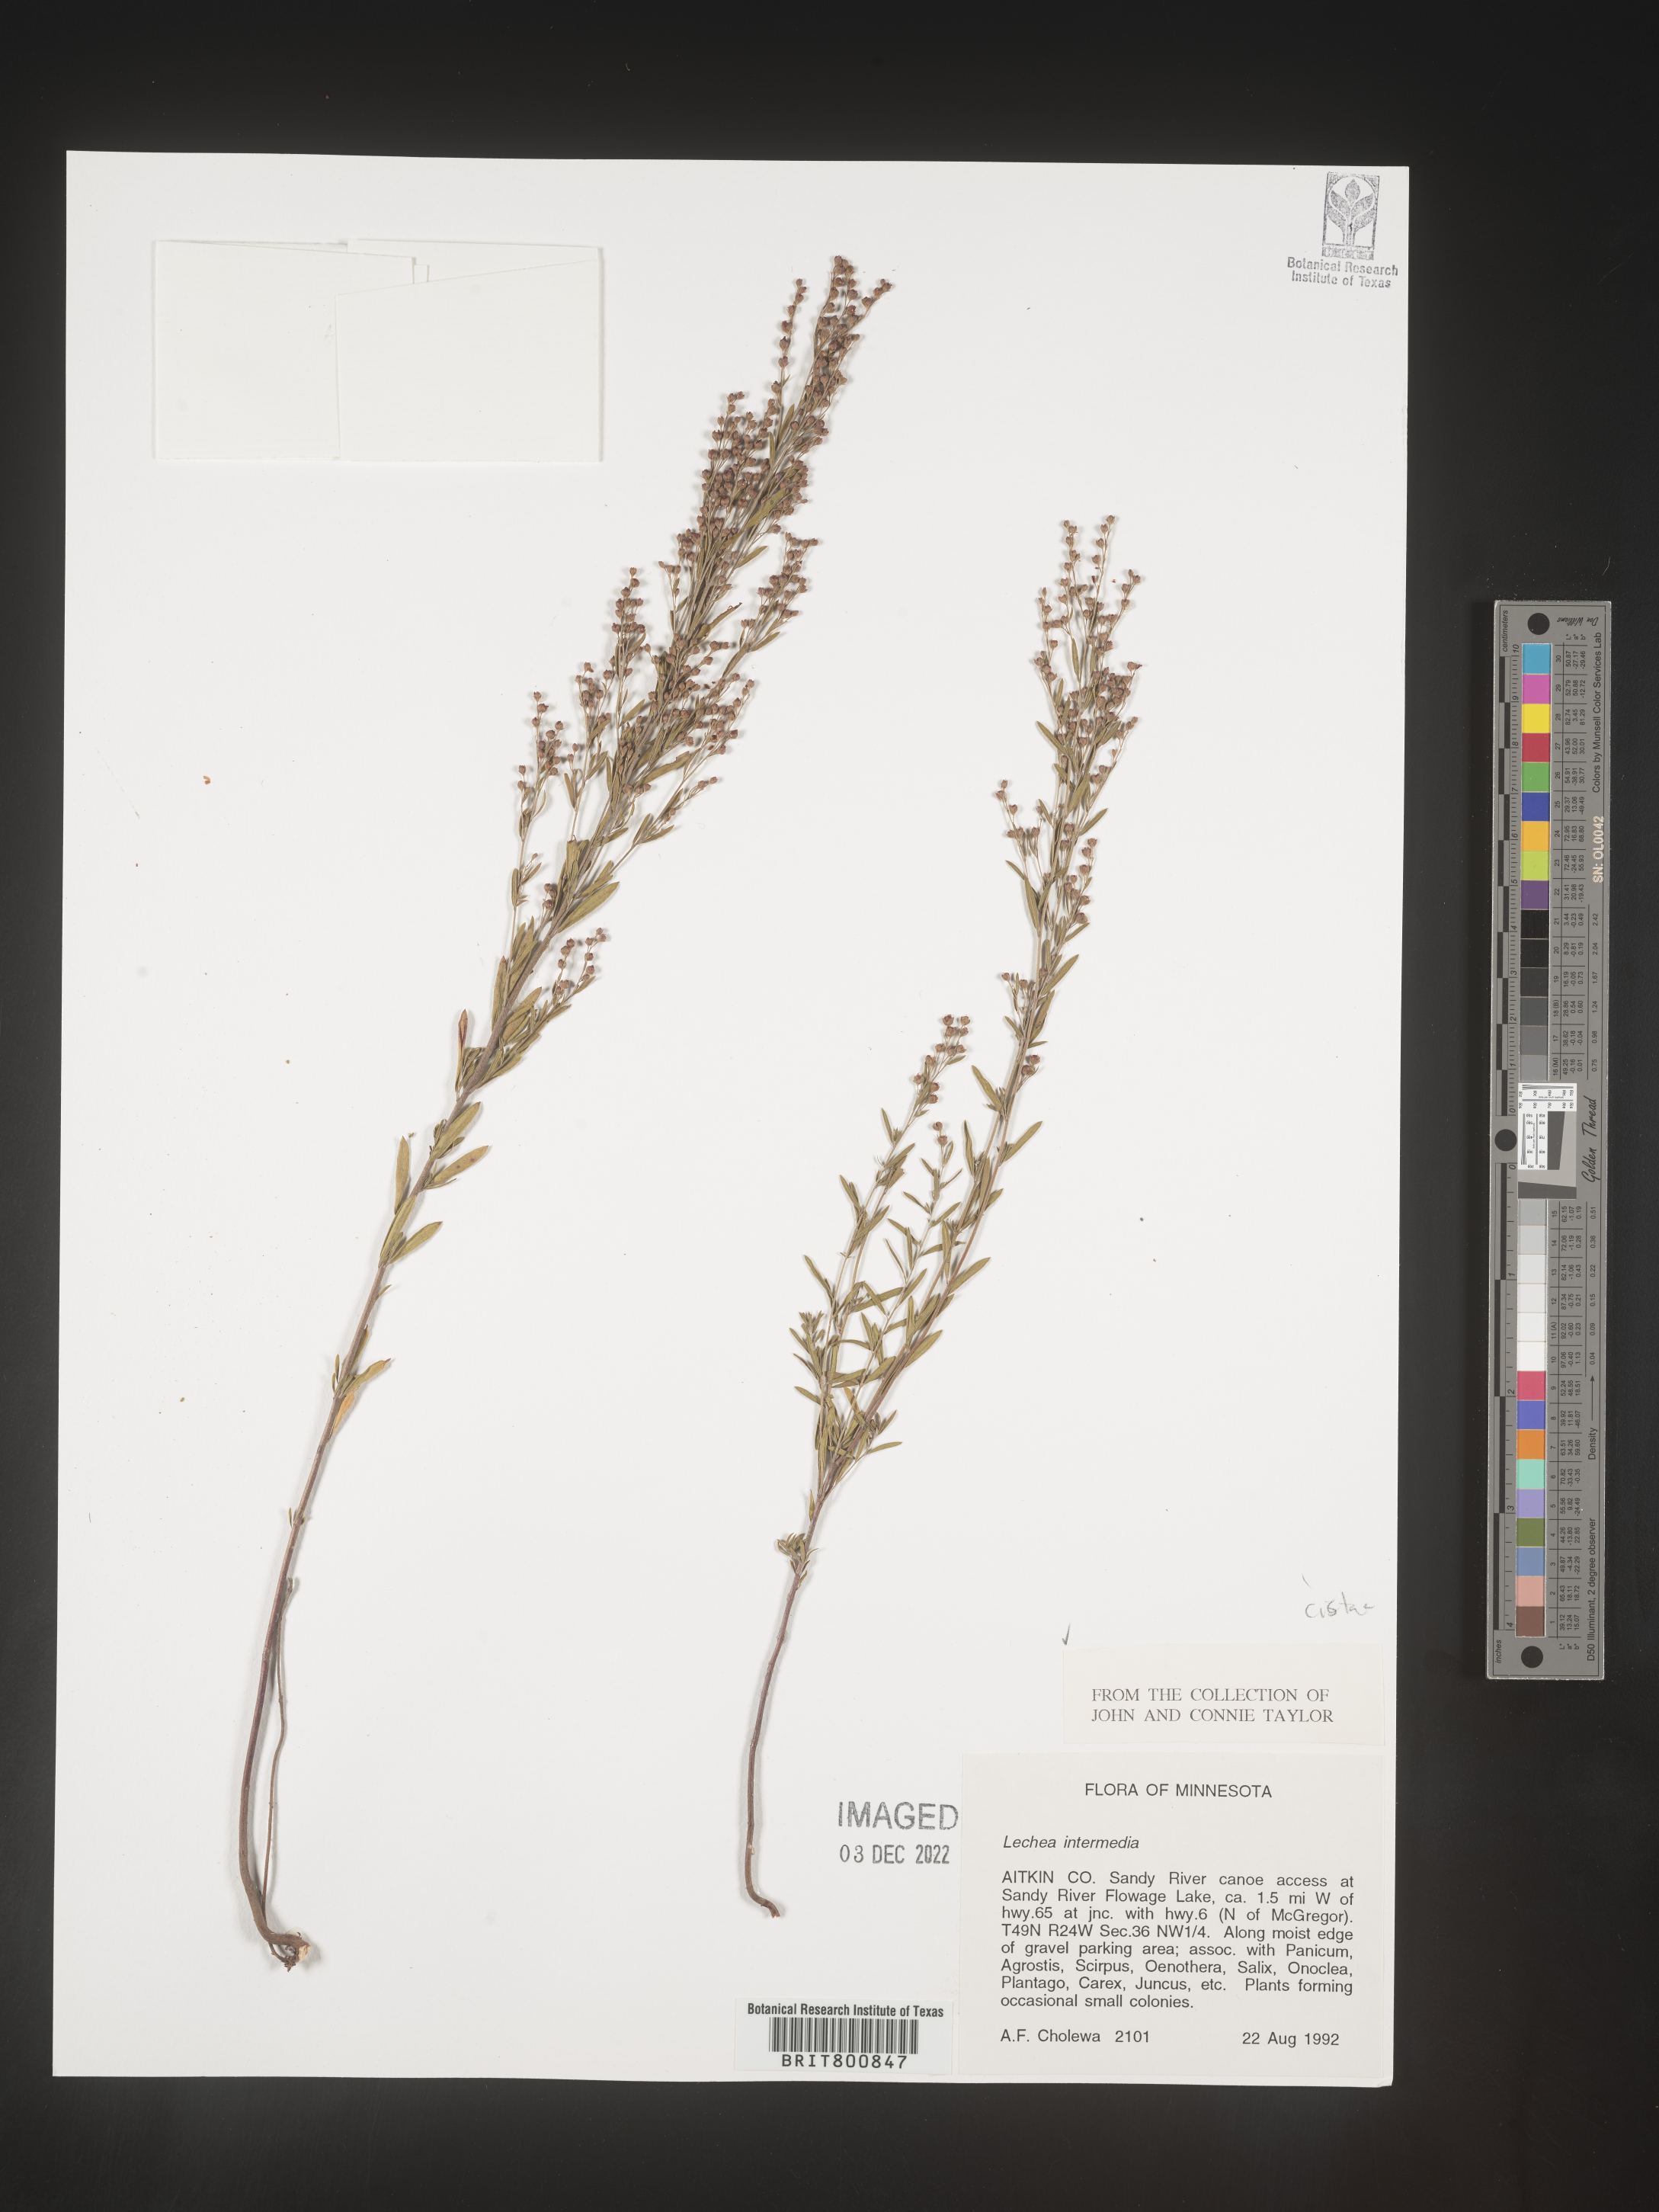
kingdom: Plantae
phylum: Tracheophyta
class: Magnoliopsida
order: Malvales
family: Cistaceae
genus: Lechea
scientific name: Lechea intermedia
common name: Intermediate pinweed
